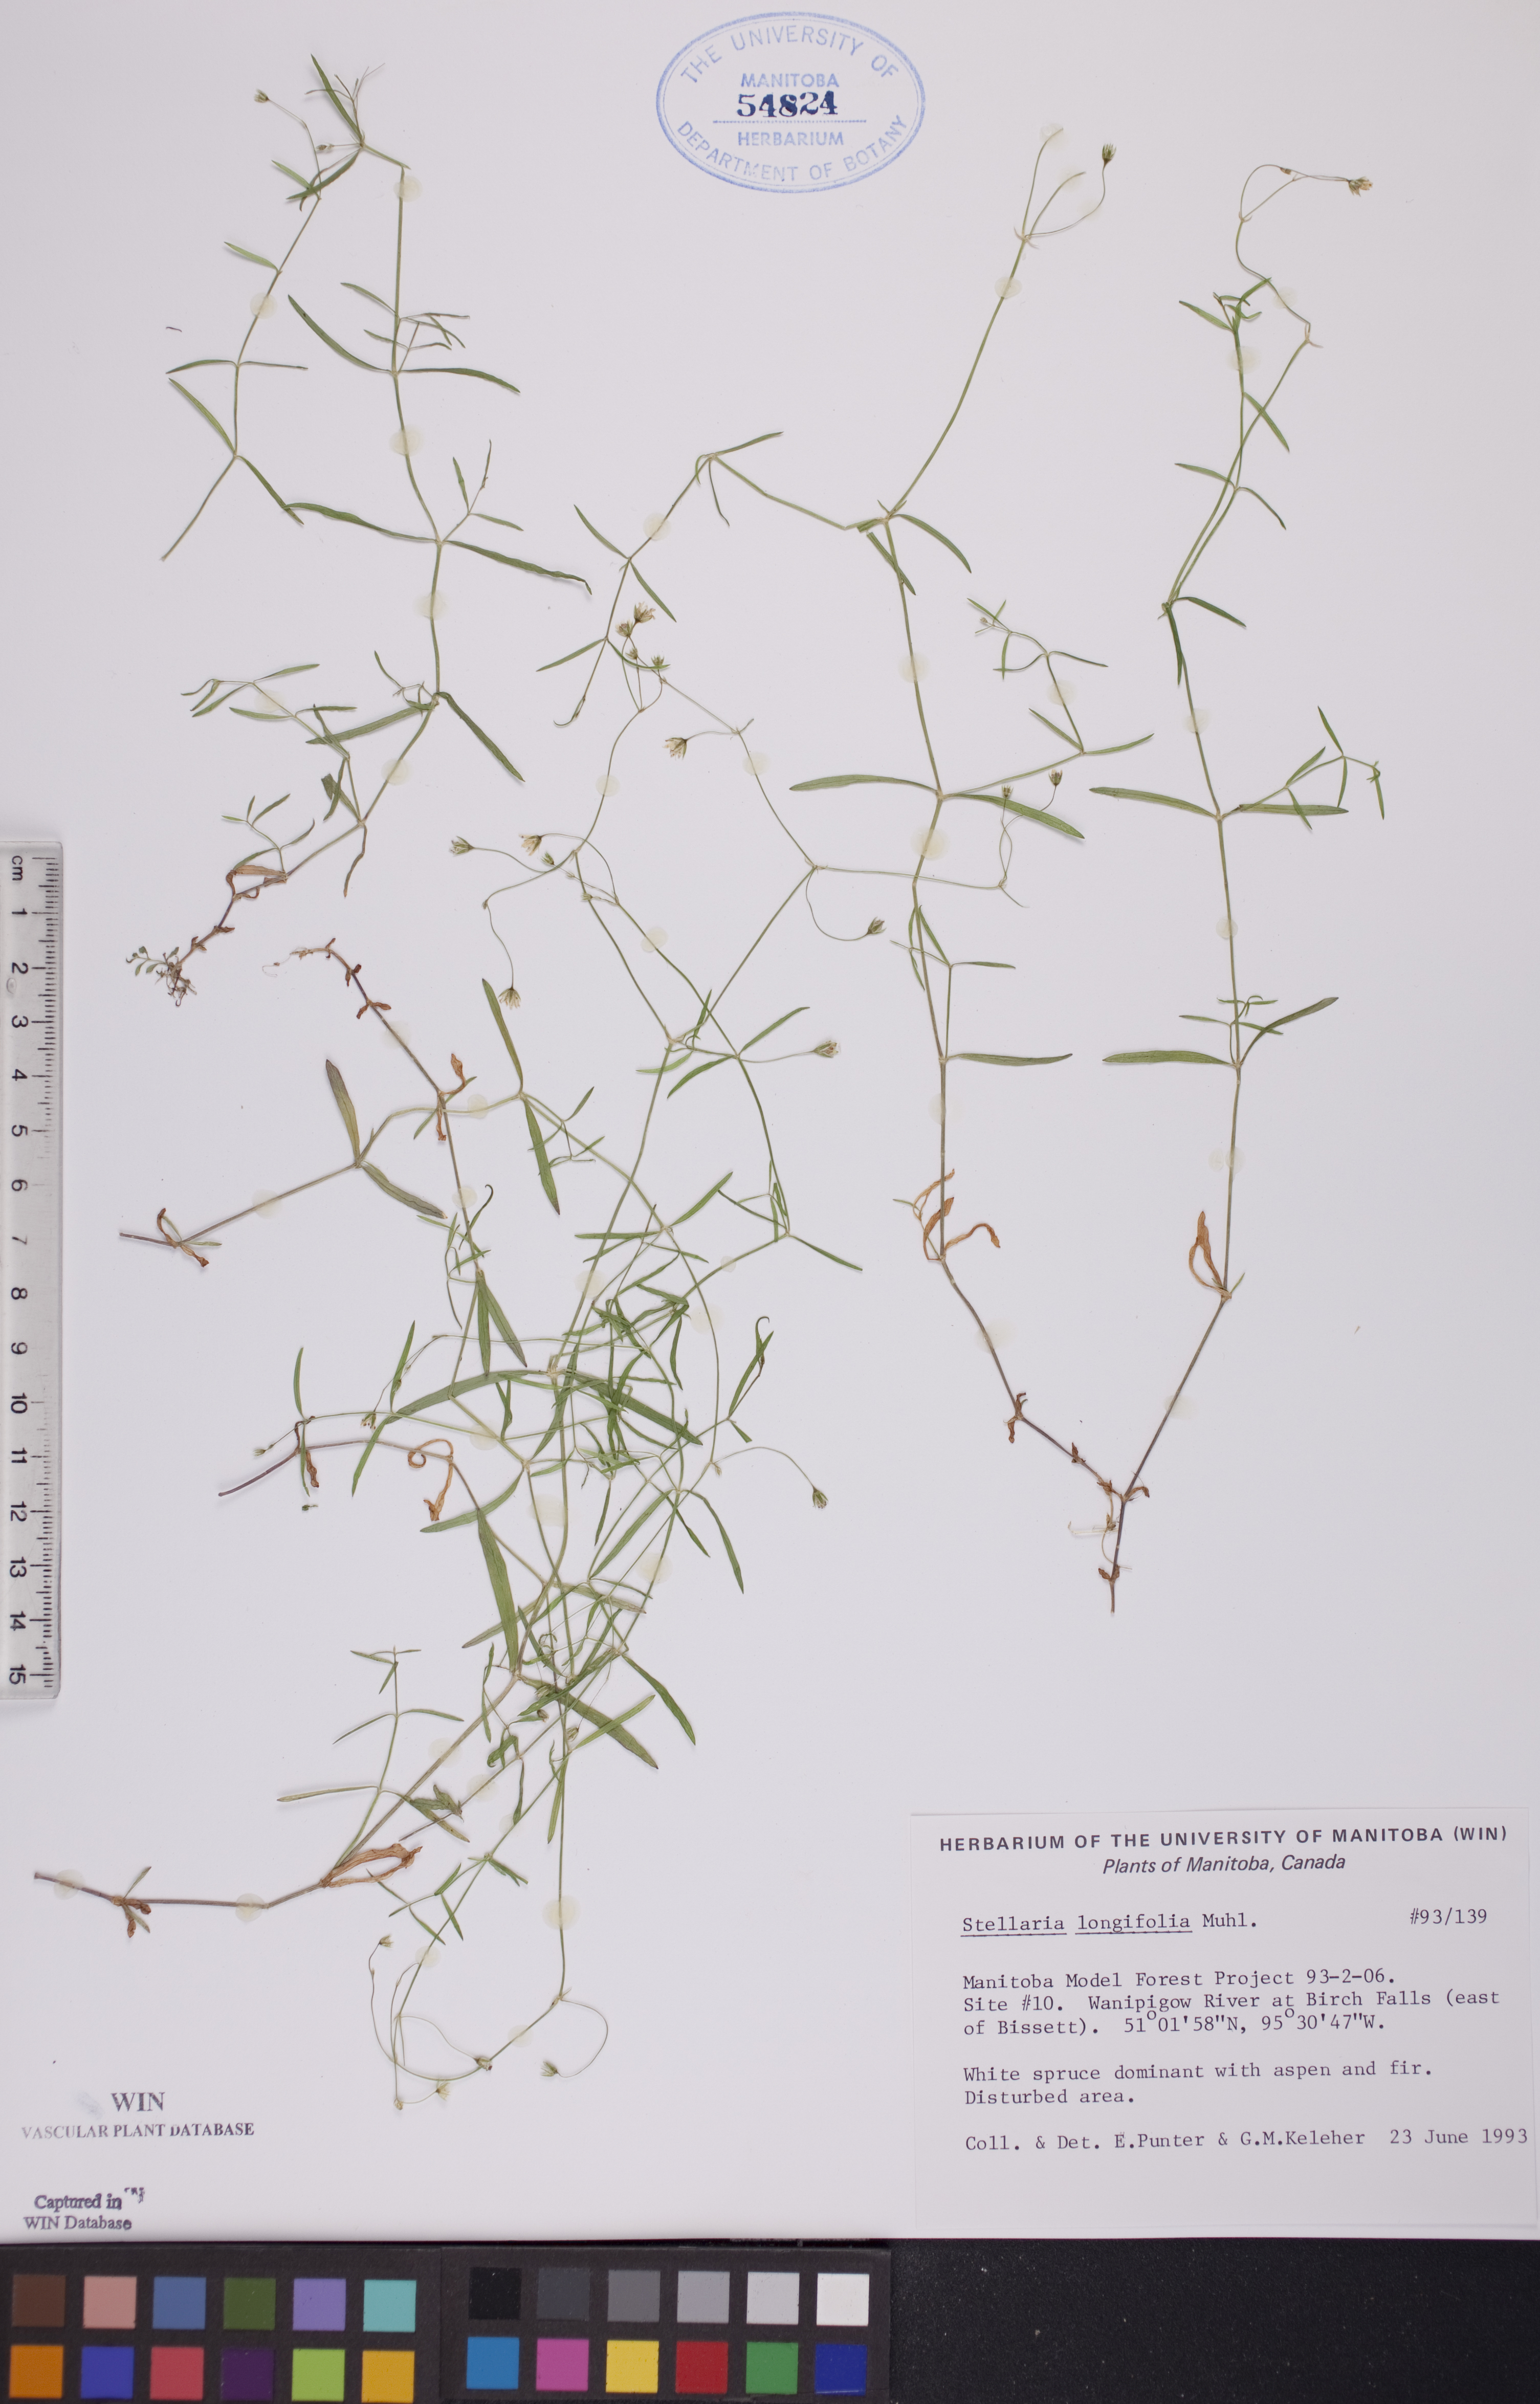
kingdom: Plantae
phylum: Tracheophyta
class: Magnoliopsida
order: Caryophyllales
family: Caryophyllaceae
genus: Stellaria
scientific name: Stellaria longifolia
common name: Long-leaved chickweed
